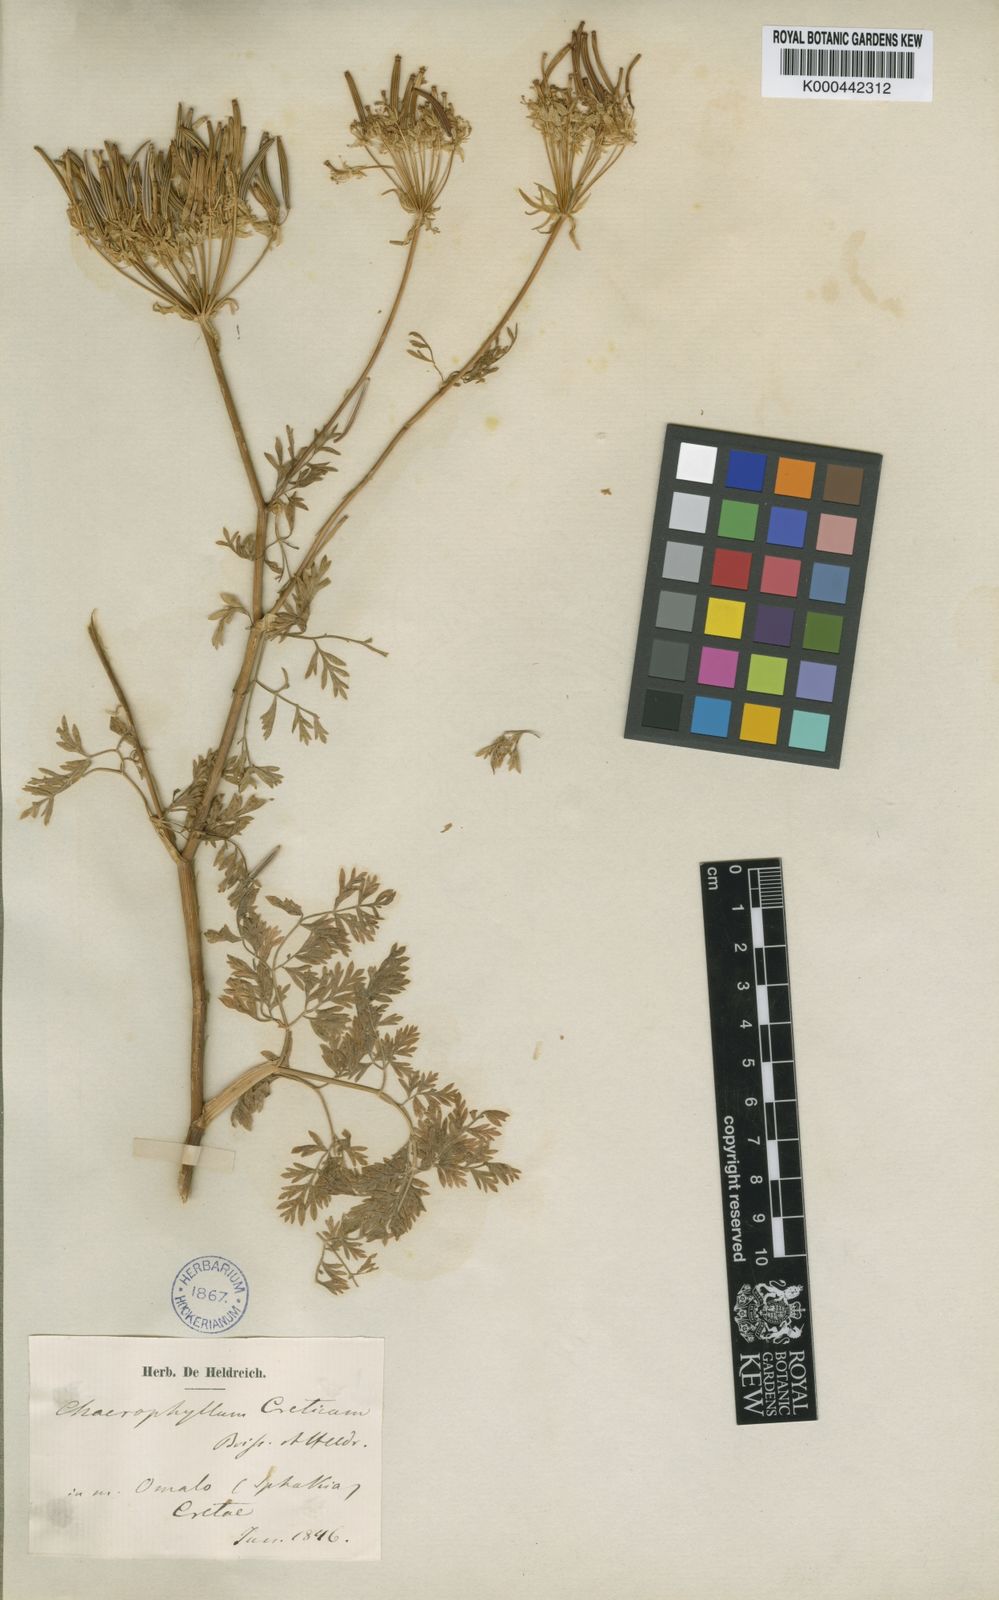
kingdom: Plantae
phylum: Tracheophyta
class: Magnoliopsida
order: Apiales
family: Apiaceae
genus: Chaerophyllum
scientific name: Chaerophyllum creticum
